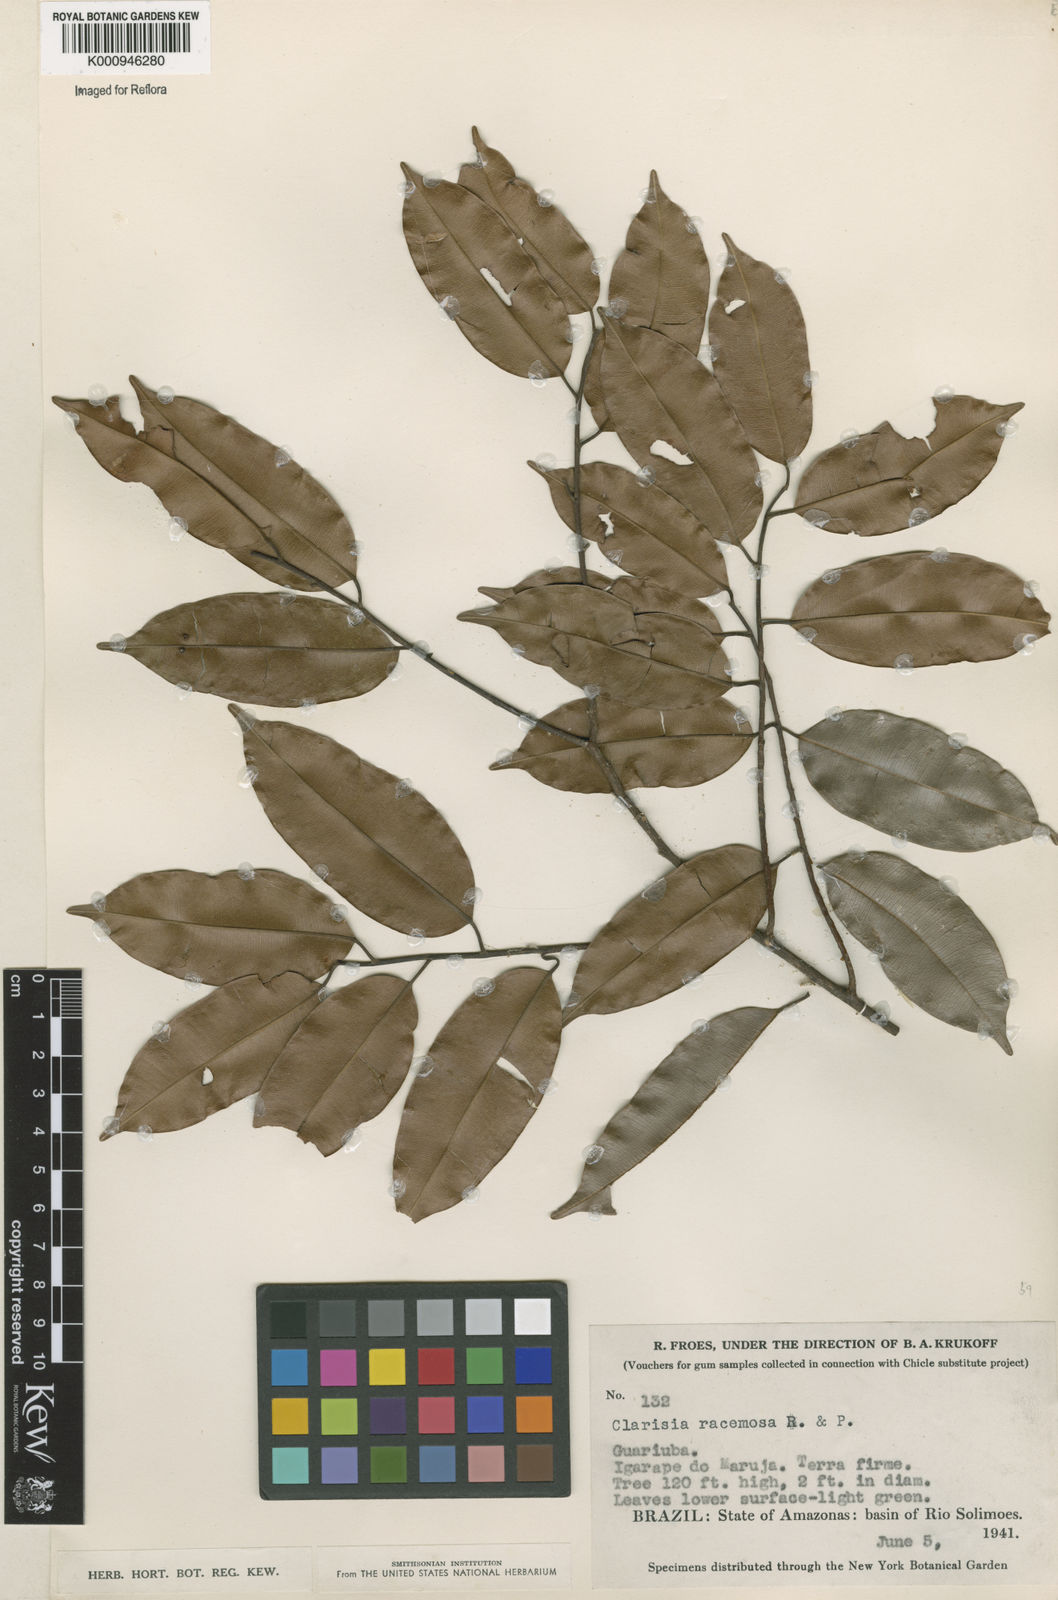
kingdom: Plantae
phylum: Tracheophyta
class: Magnoliopsida
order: Rosales
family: Moraceae
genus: Clarisia
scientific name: Clarisia racemosa
